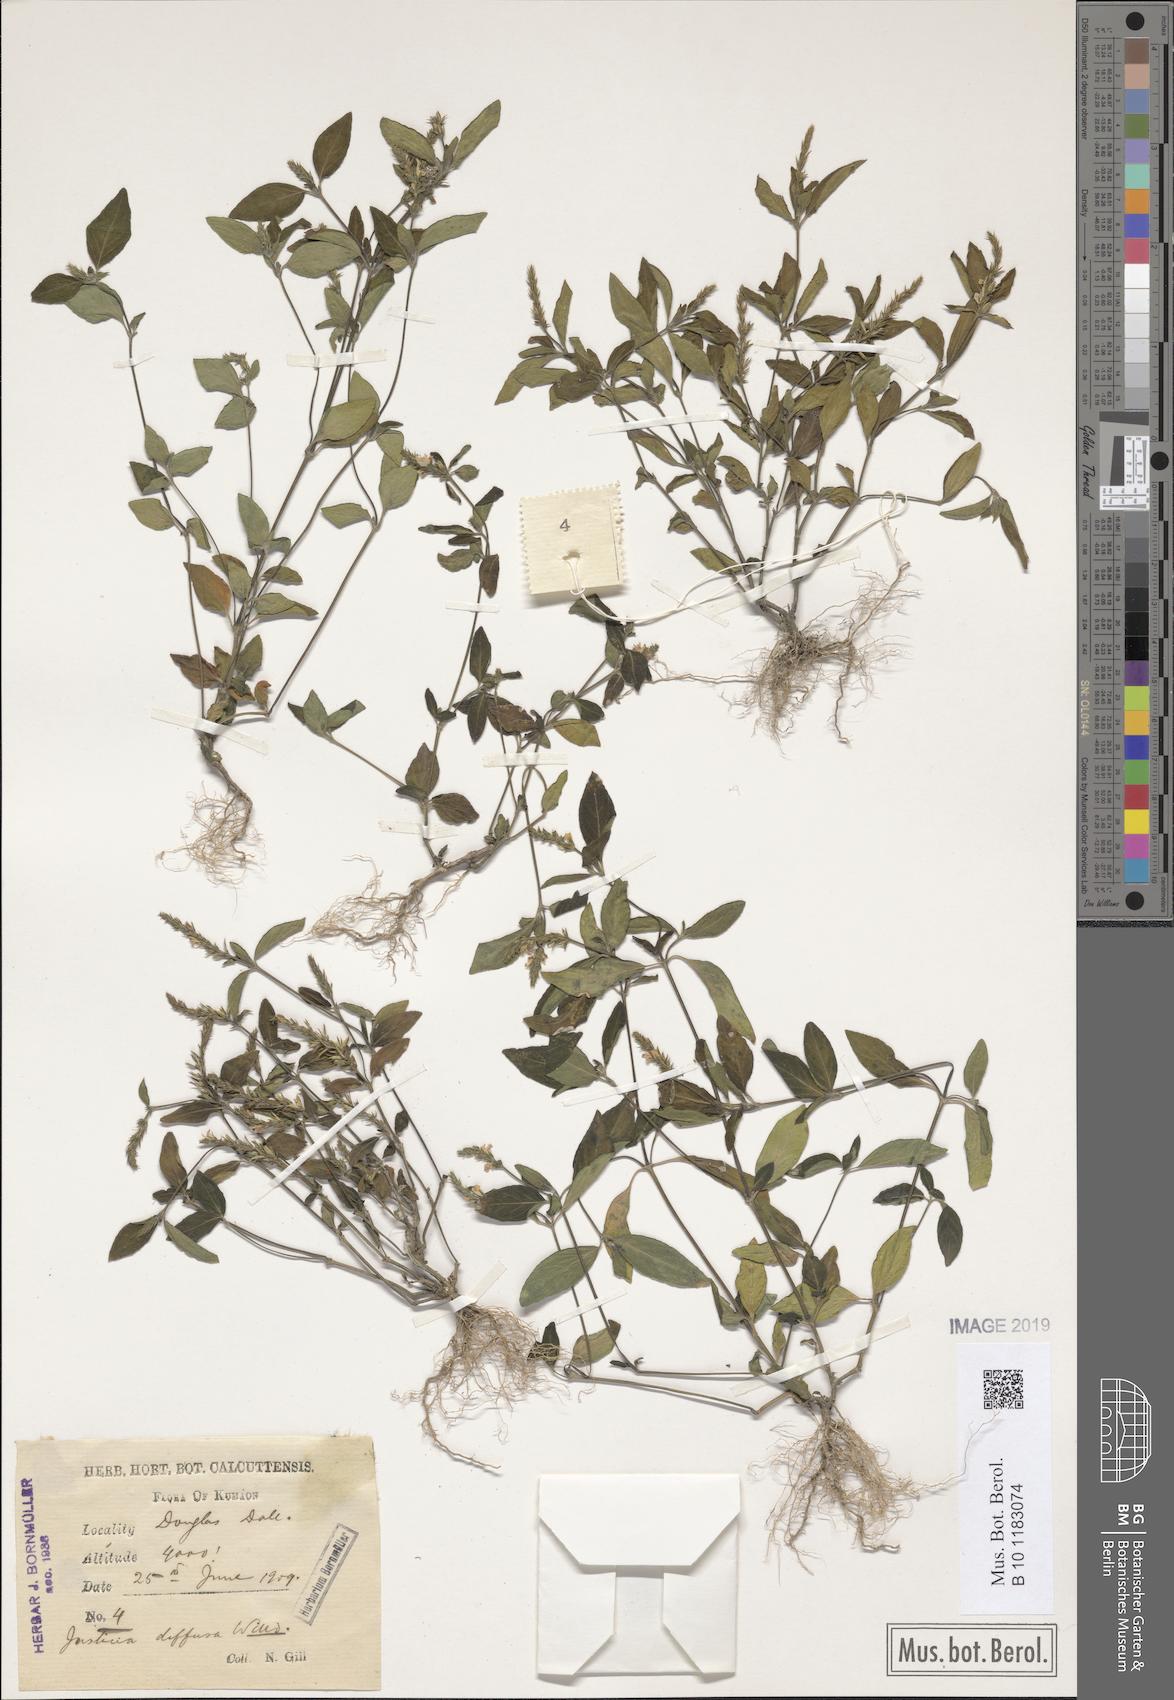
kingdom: Plantae
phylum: Tracheophyta
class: Magnoliopsida
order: Lamiales
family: Acanthaceae
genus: Rostellularia
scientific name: Rostellularia diffusa
